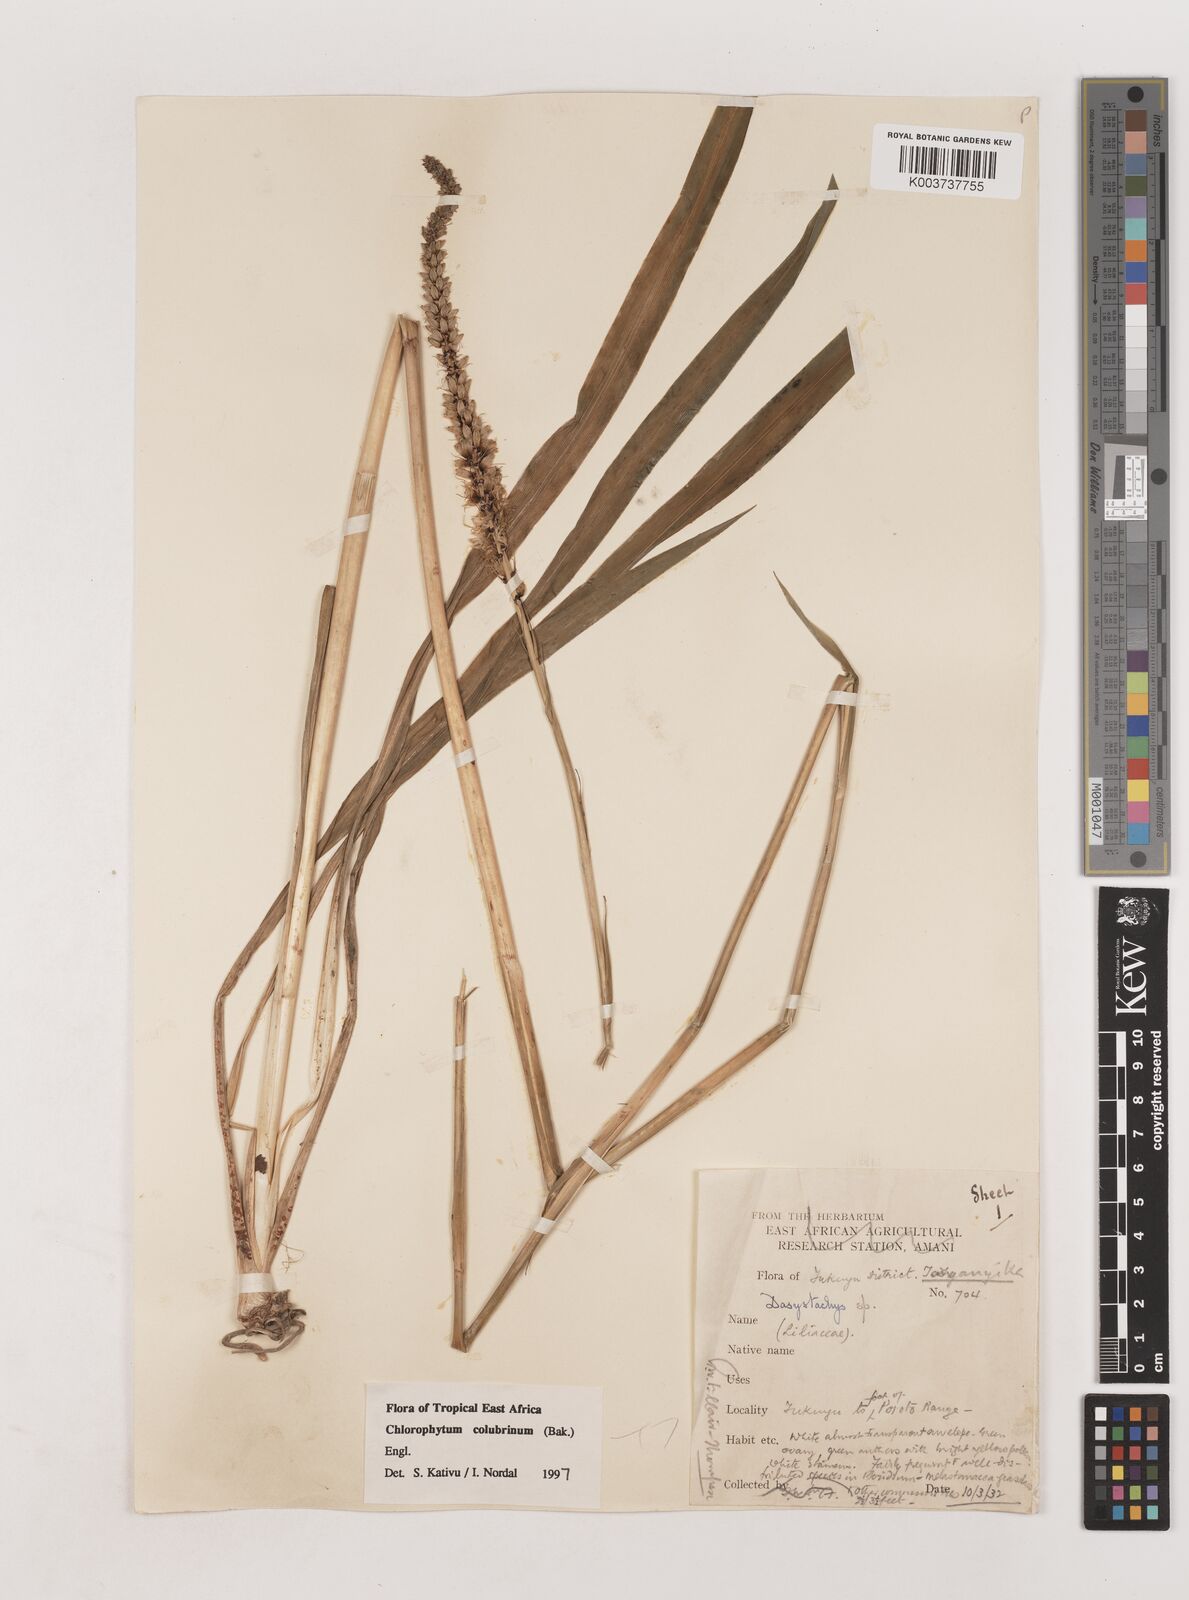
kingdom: Plantae
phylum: Tracheophyta
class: Liliopsida
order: Asparagales
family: Asparagaceae
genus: Chlorophytum
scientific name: Chlorophytum colubrinum
